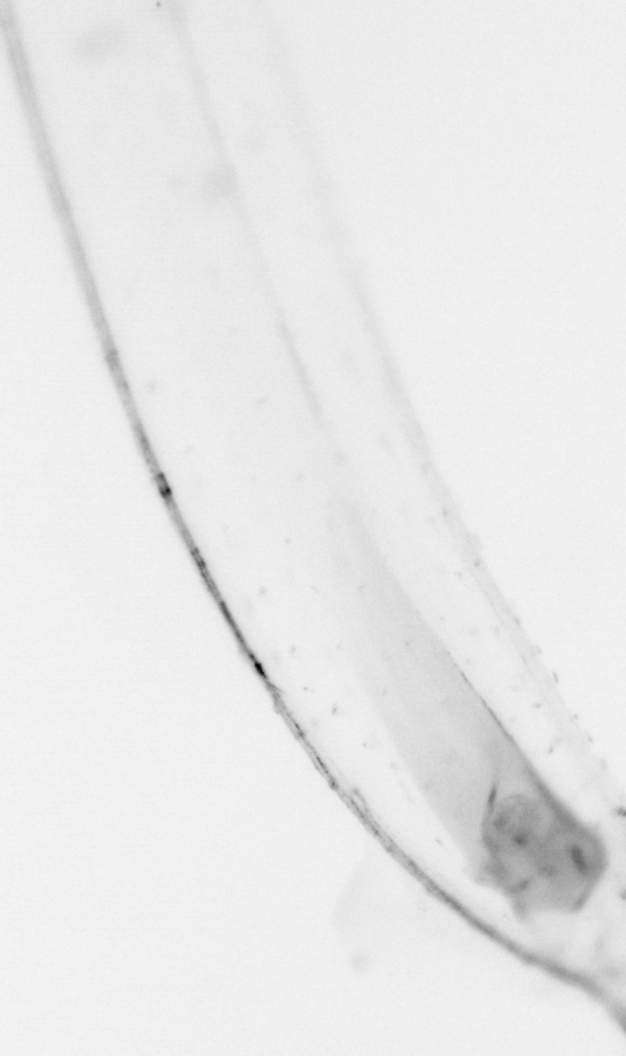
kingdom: Animalia
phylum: Chordata
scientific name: Chordata
